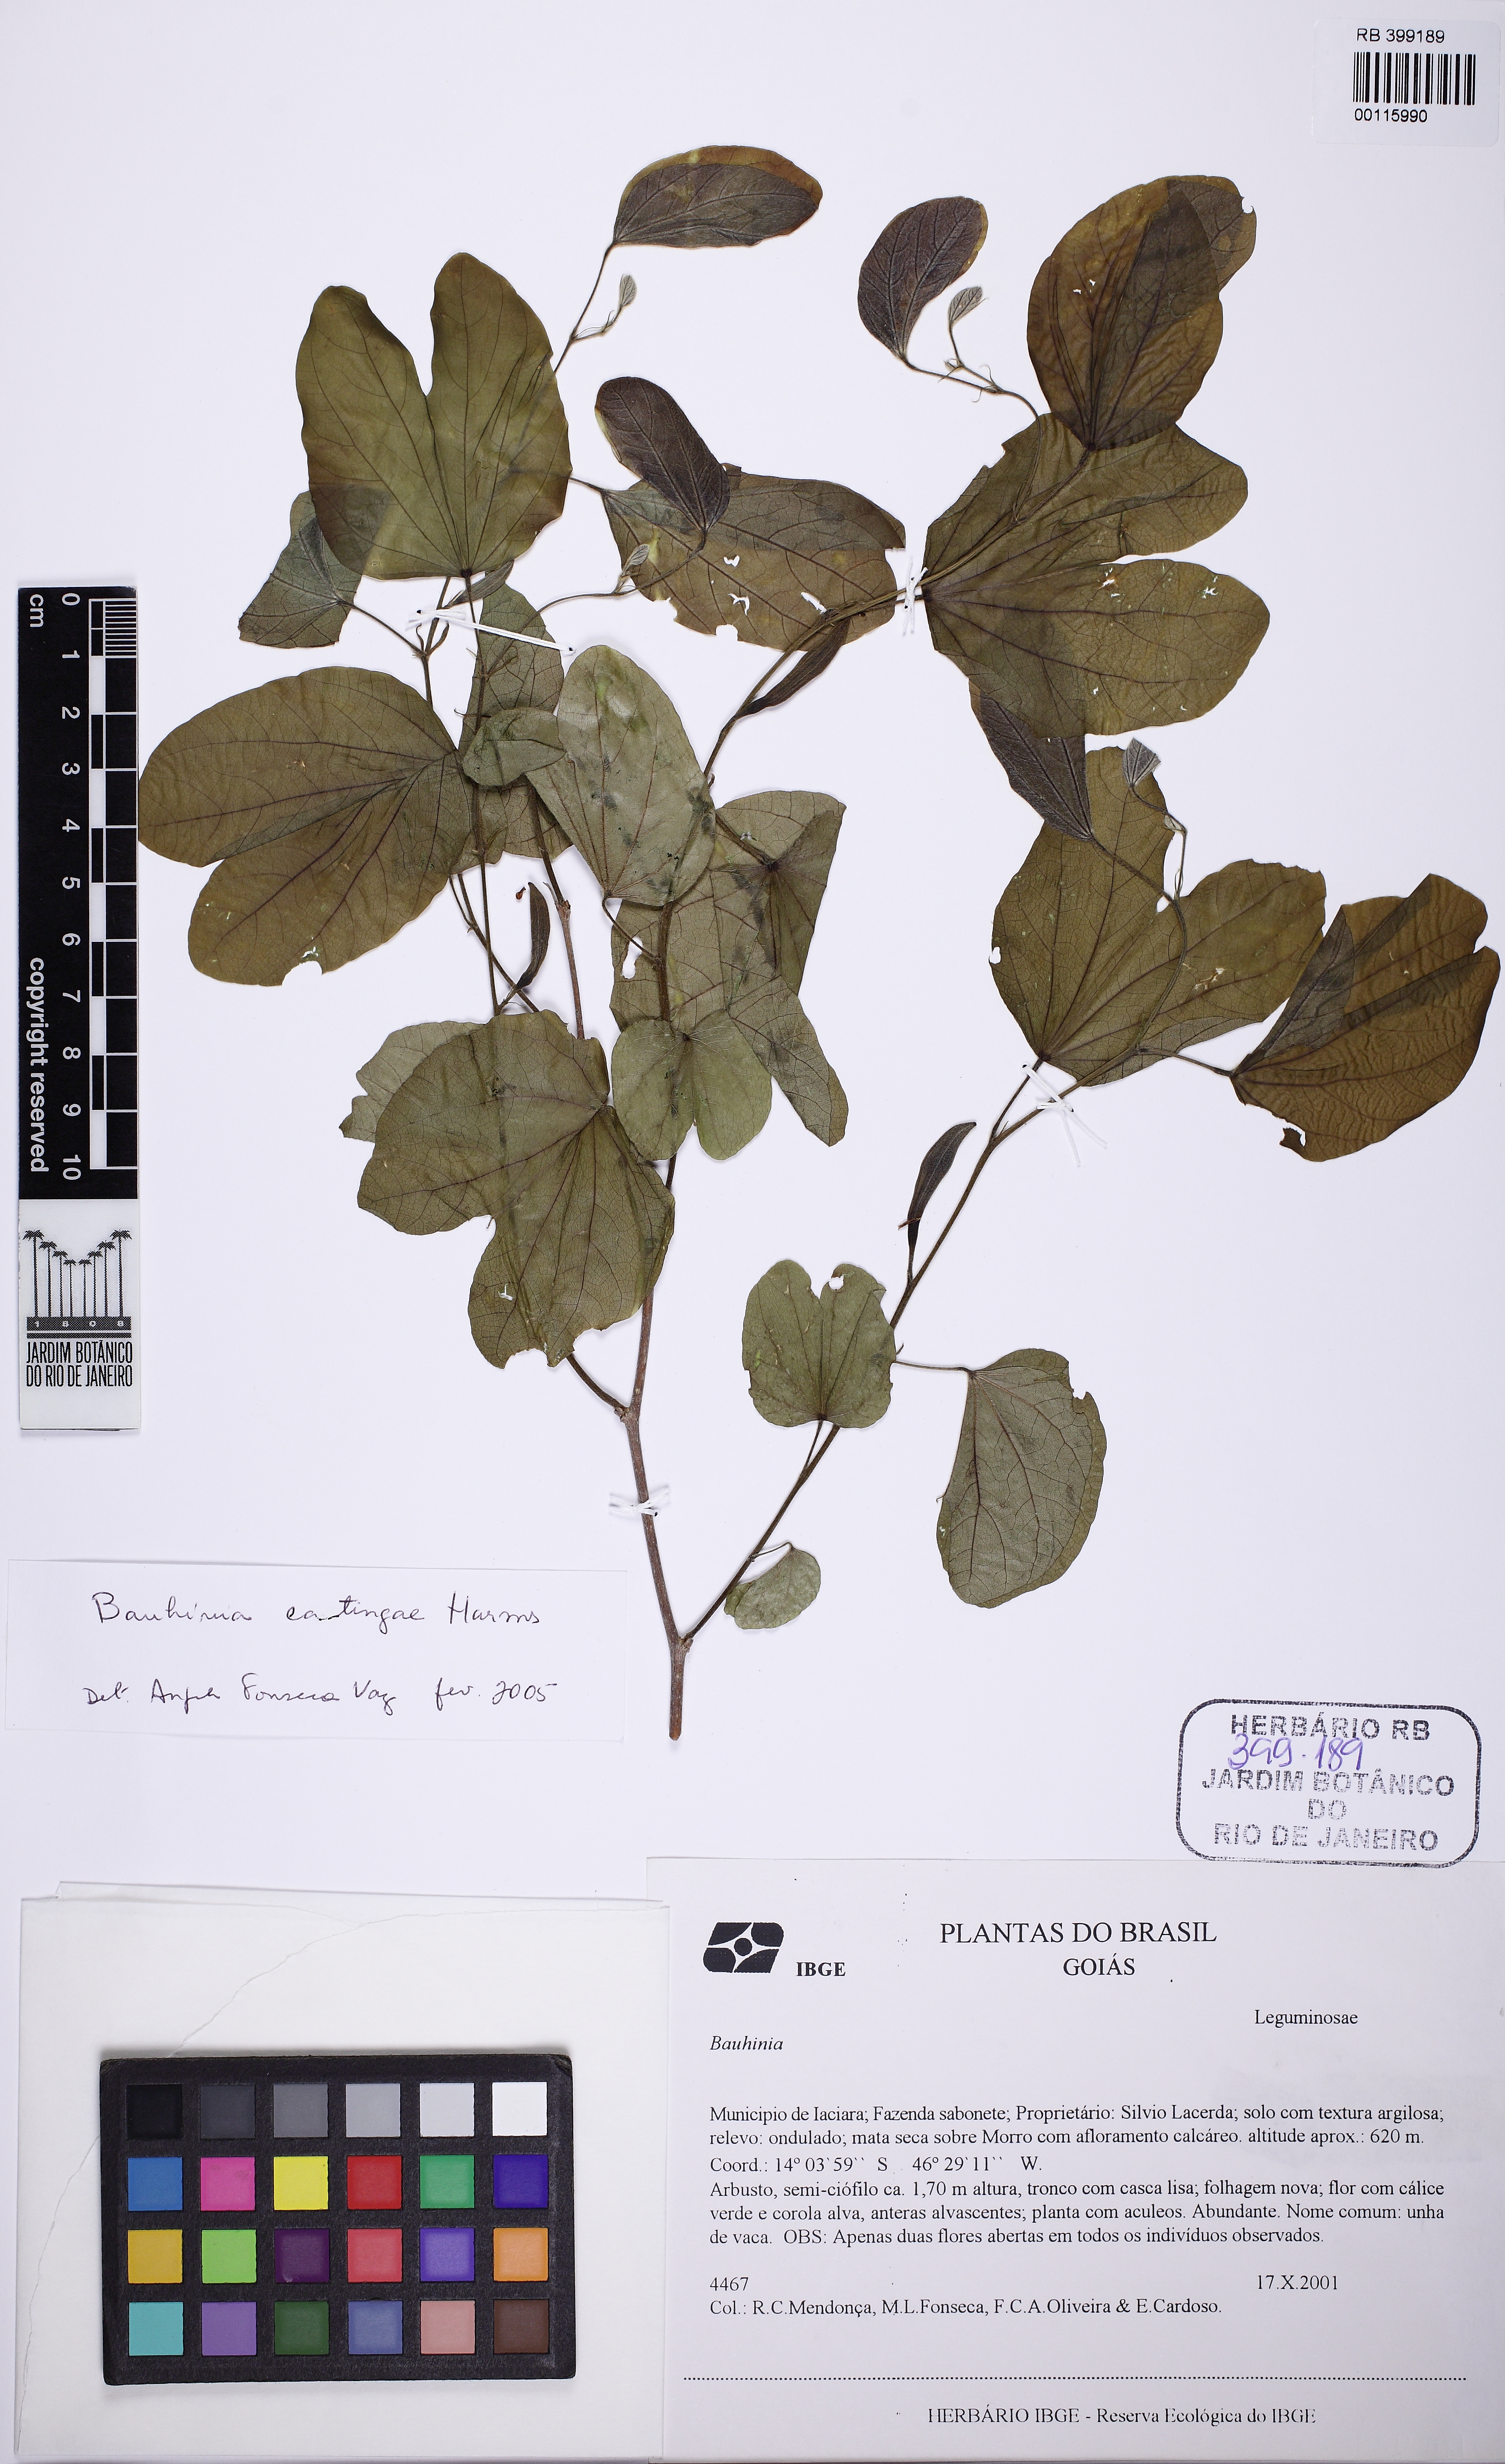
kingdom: Plantae
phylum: Tracheophyta
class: Magnoliopsida
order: Fabales
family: Fabaceae
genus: Bauhinia
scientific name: Bauhinia
